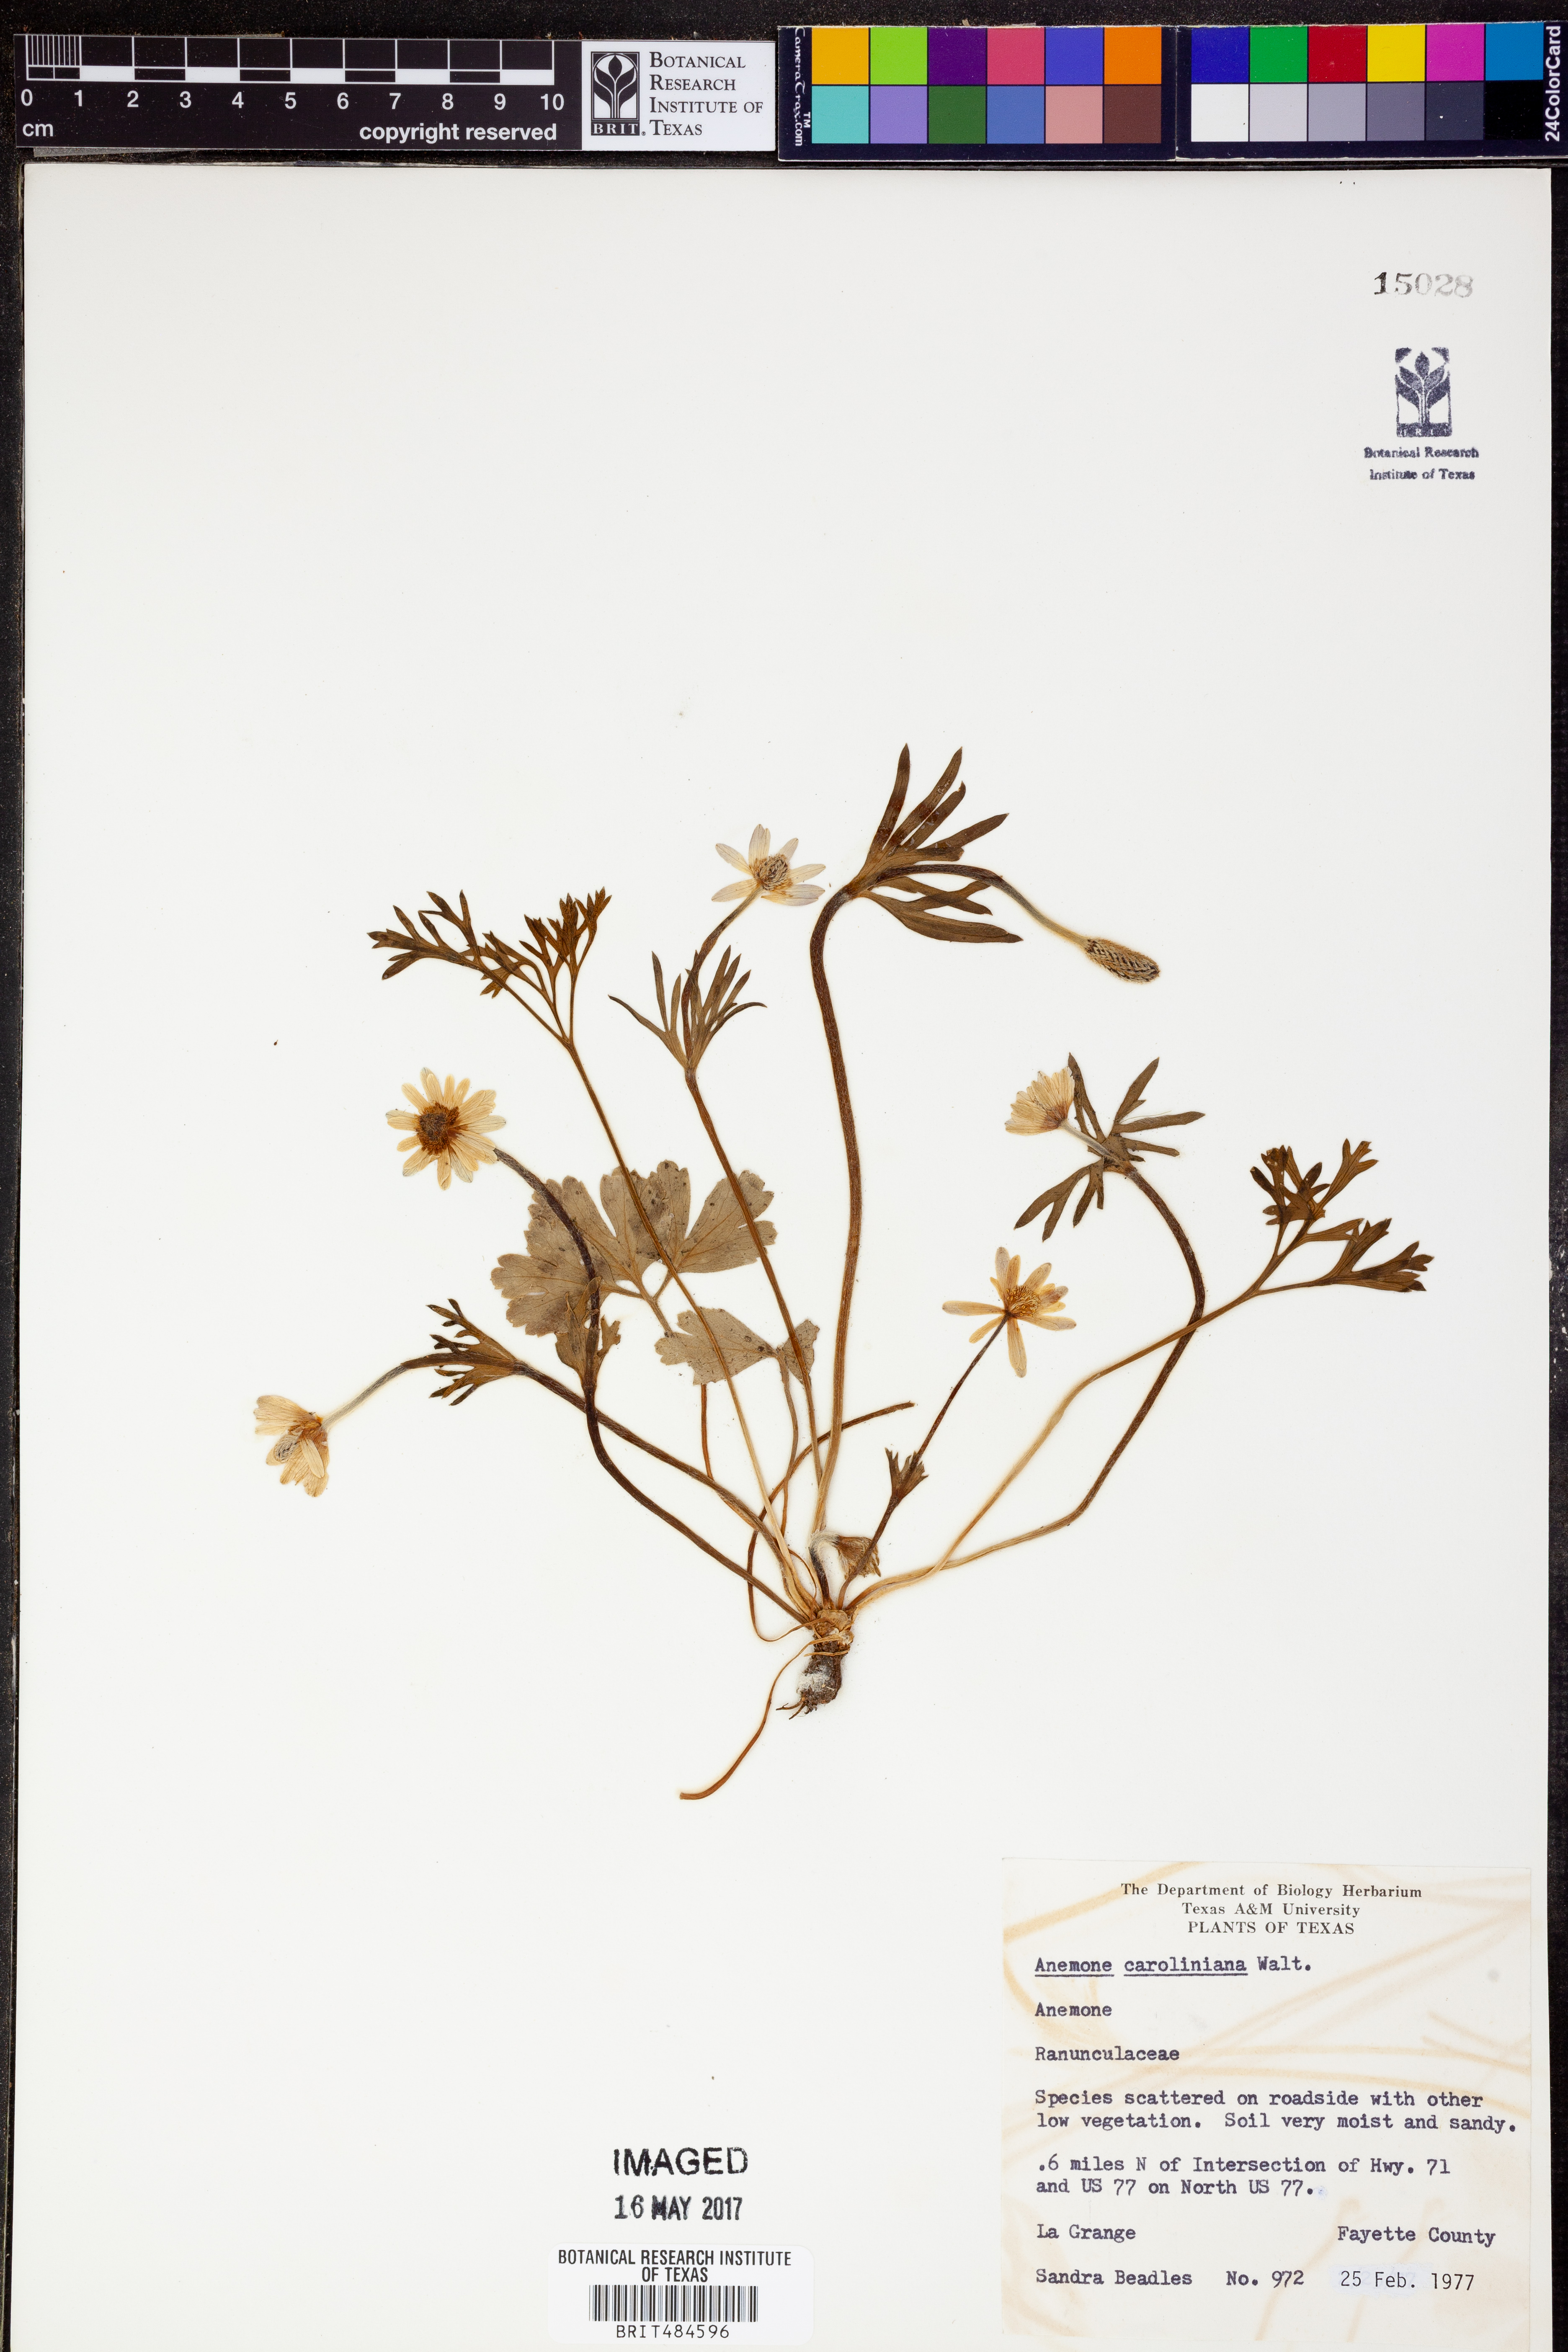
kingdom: Plantae
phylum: Tracheophyta
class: Magnoliopsida
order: Ranunculales
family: Ranunculaceae
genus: Anemone
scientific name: Anemone caroliniana
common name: Carolina anemone
